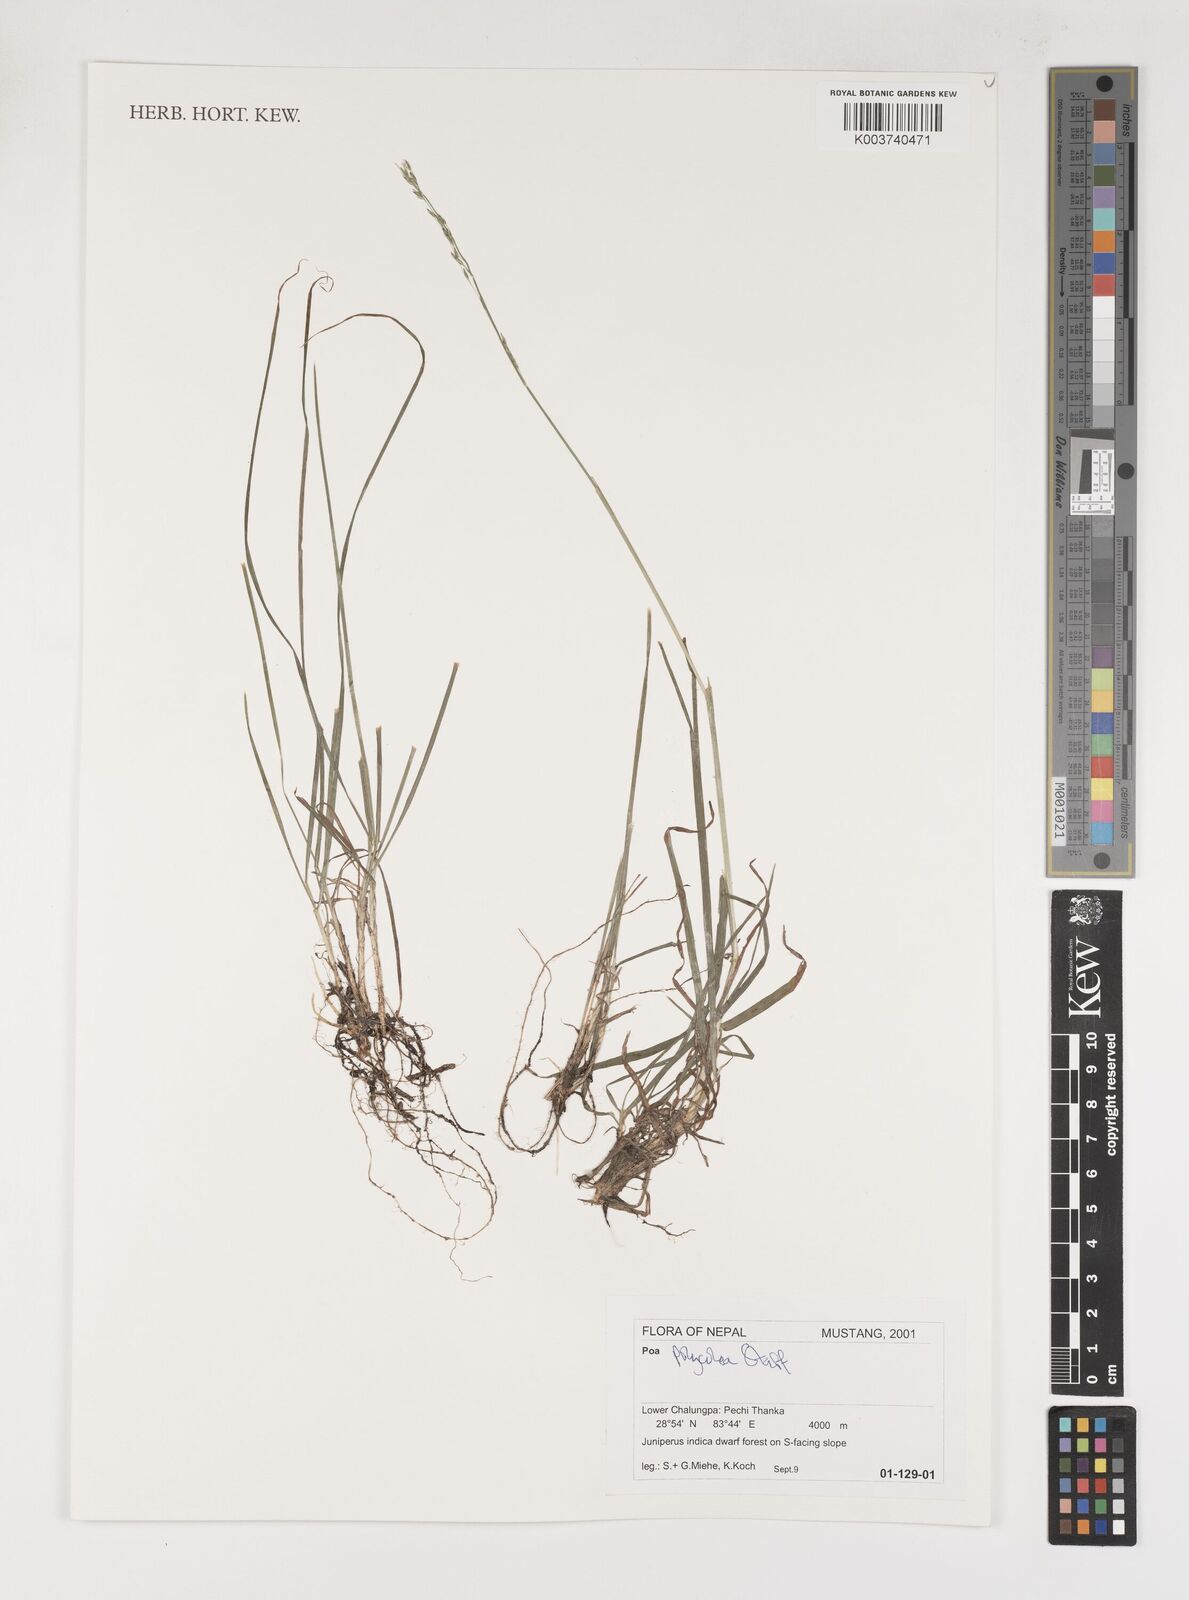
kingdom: Plantae
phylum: Tracheophyta
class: Liliopsida
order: Poales
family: Poaceae
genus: Poa
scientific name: Poa polycolea
